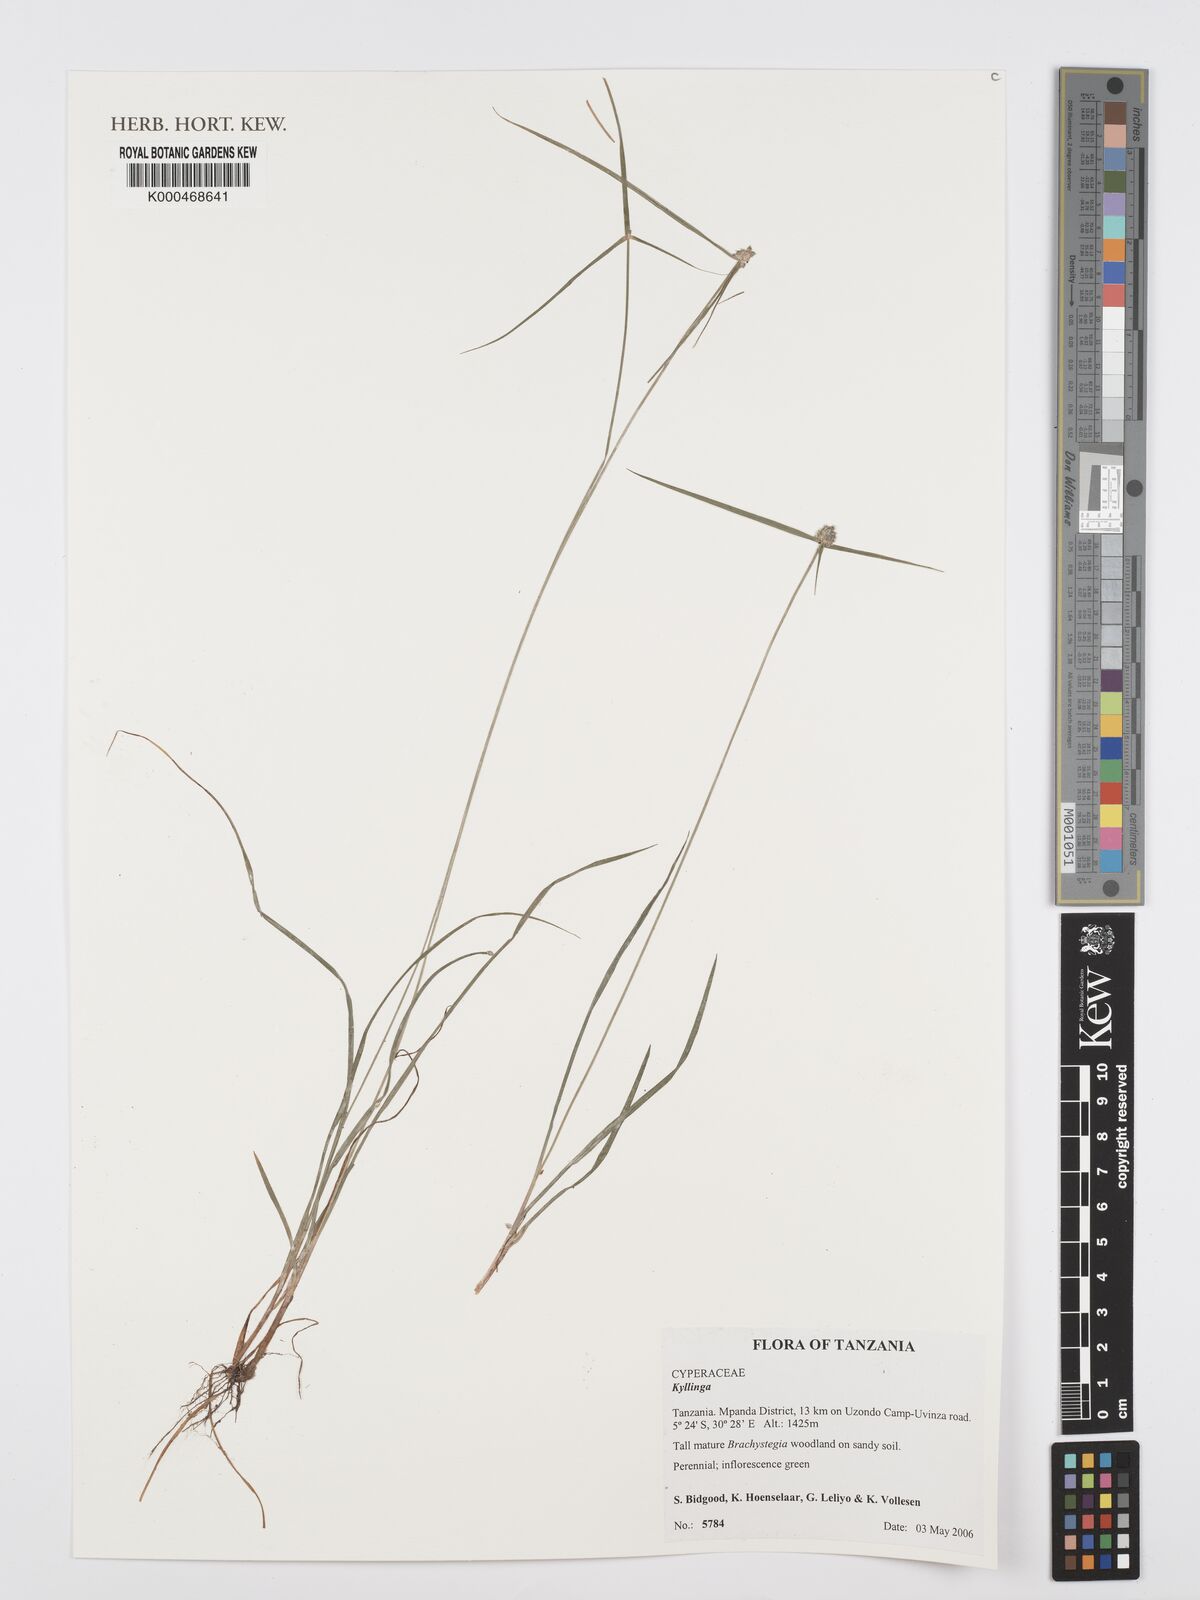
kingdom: Plantae
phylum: Tracheophyta
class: Liliopsida
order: Poales
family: Cyperaceae
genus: Cyperus
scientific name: Cyperus
